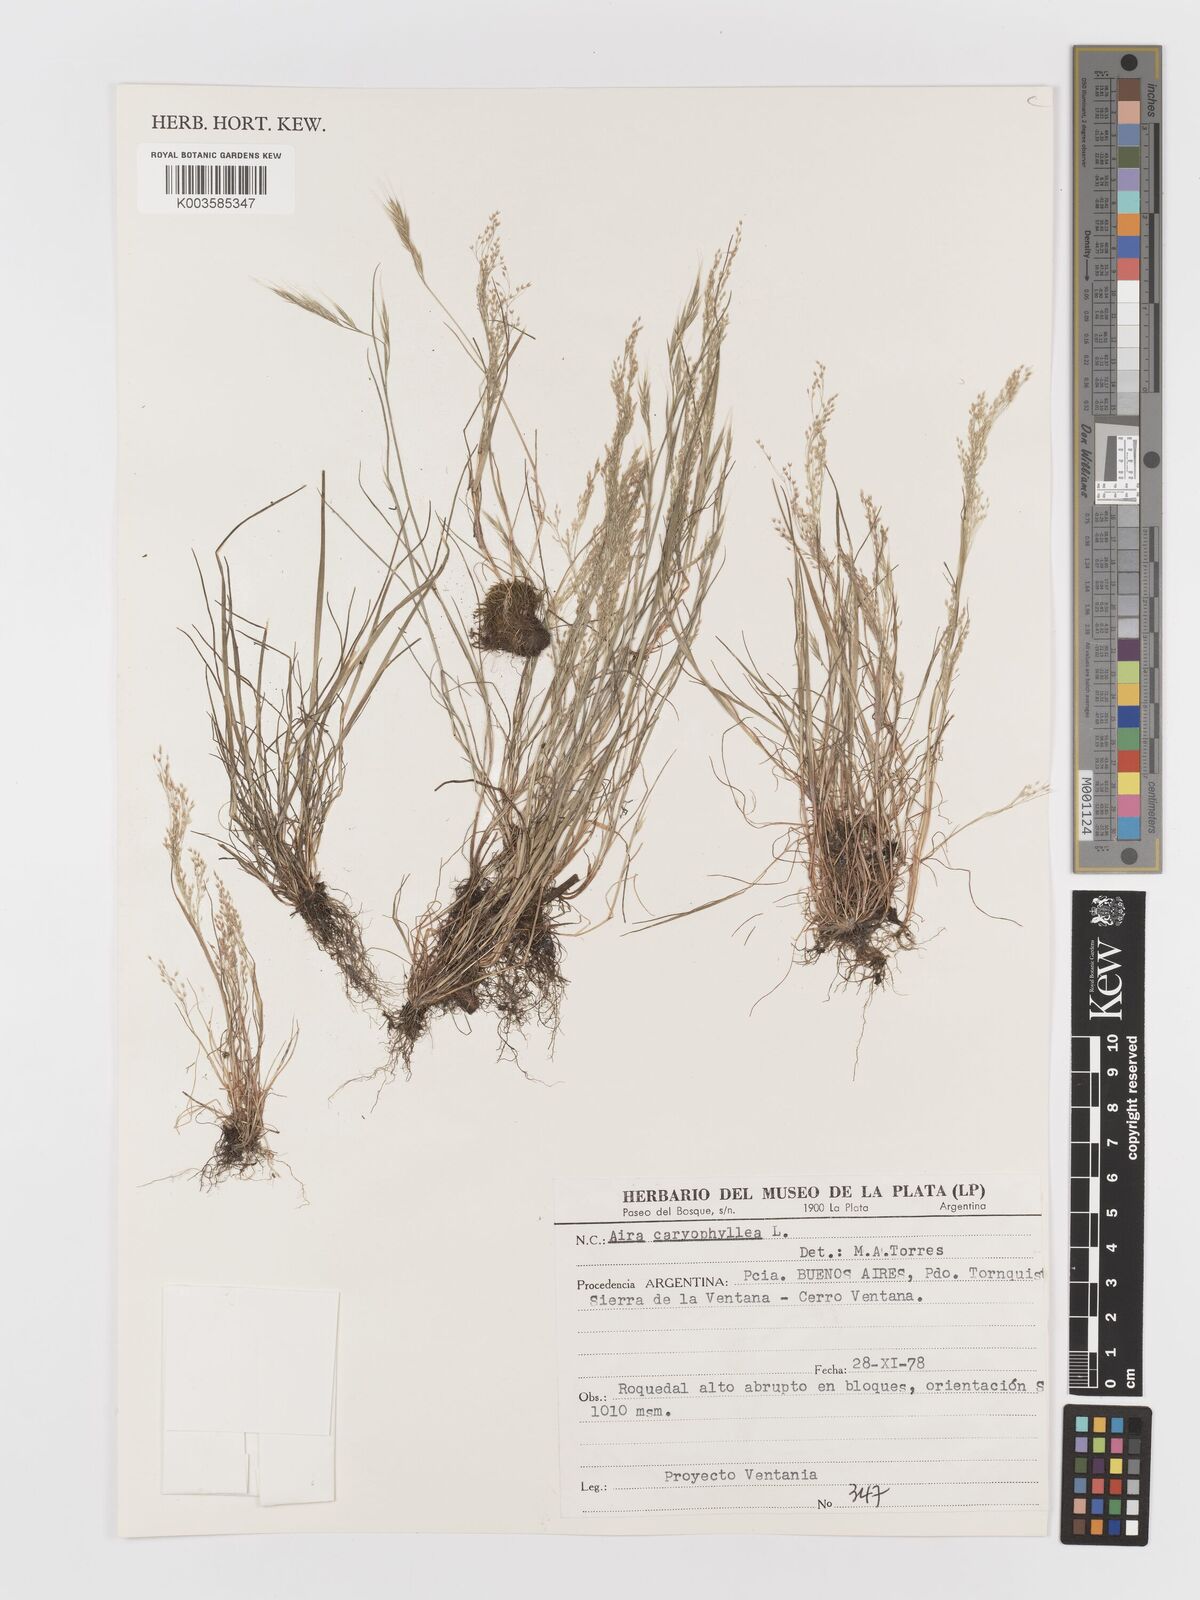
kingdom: Plantae
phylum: Tracheophyta
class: Liliopsida
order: Poales
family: Poaceae
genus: Aira
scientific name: Aira elegans
